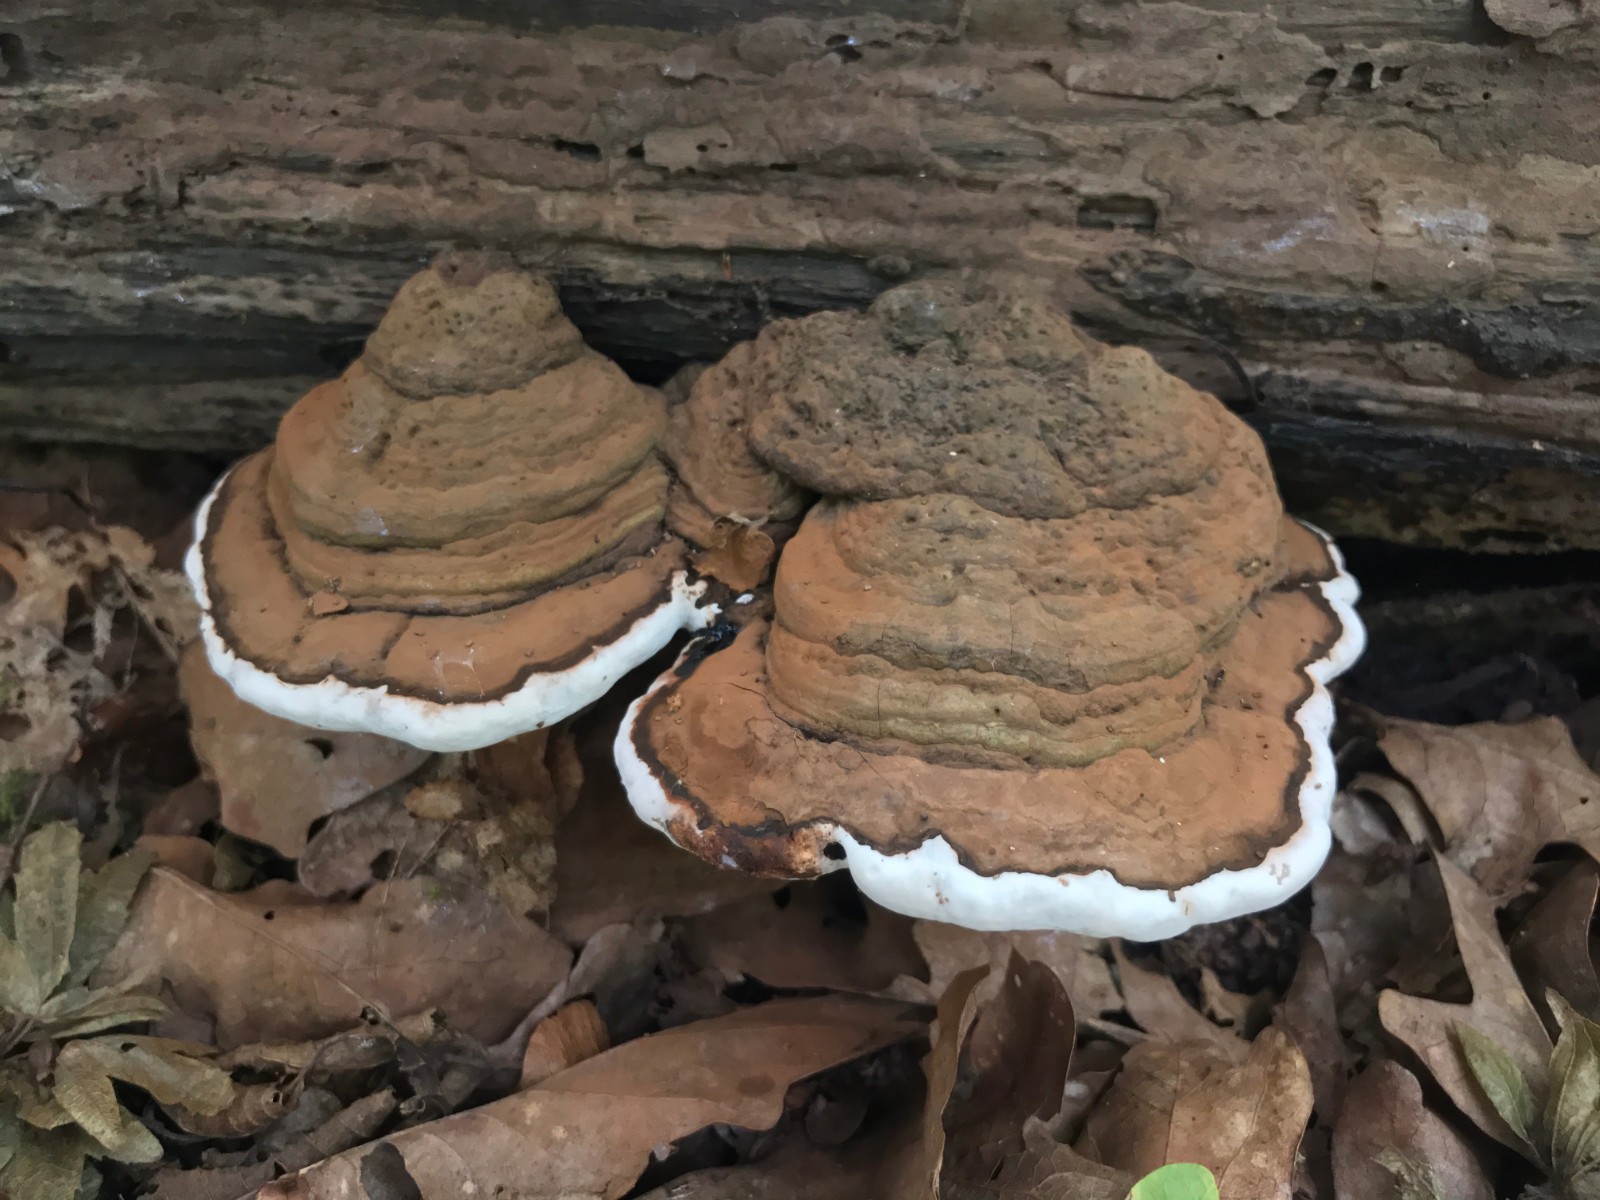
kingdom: Fungi
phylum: Basidiomycota
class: Agaricomycetes
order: Polyporales
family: Polyporaceae
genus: Ganoderma
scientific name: Ganoderma applanatum
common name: flad lakporesvamp
